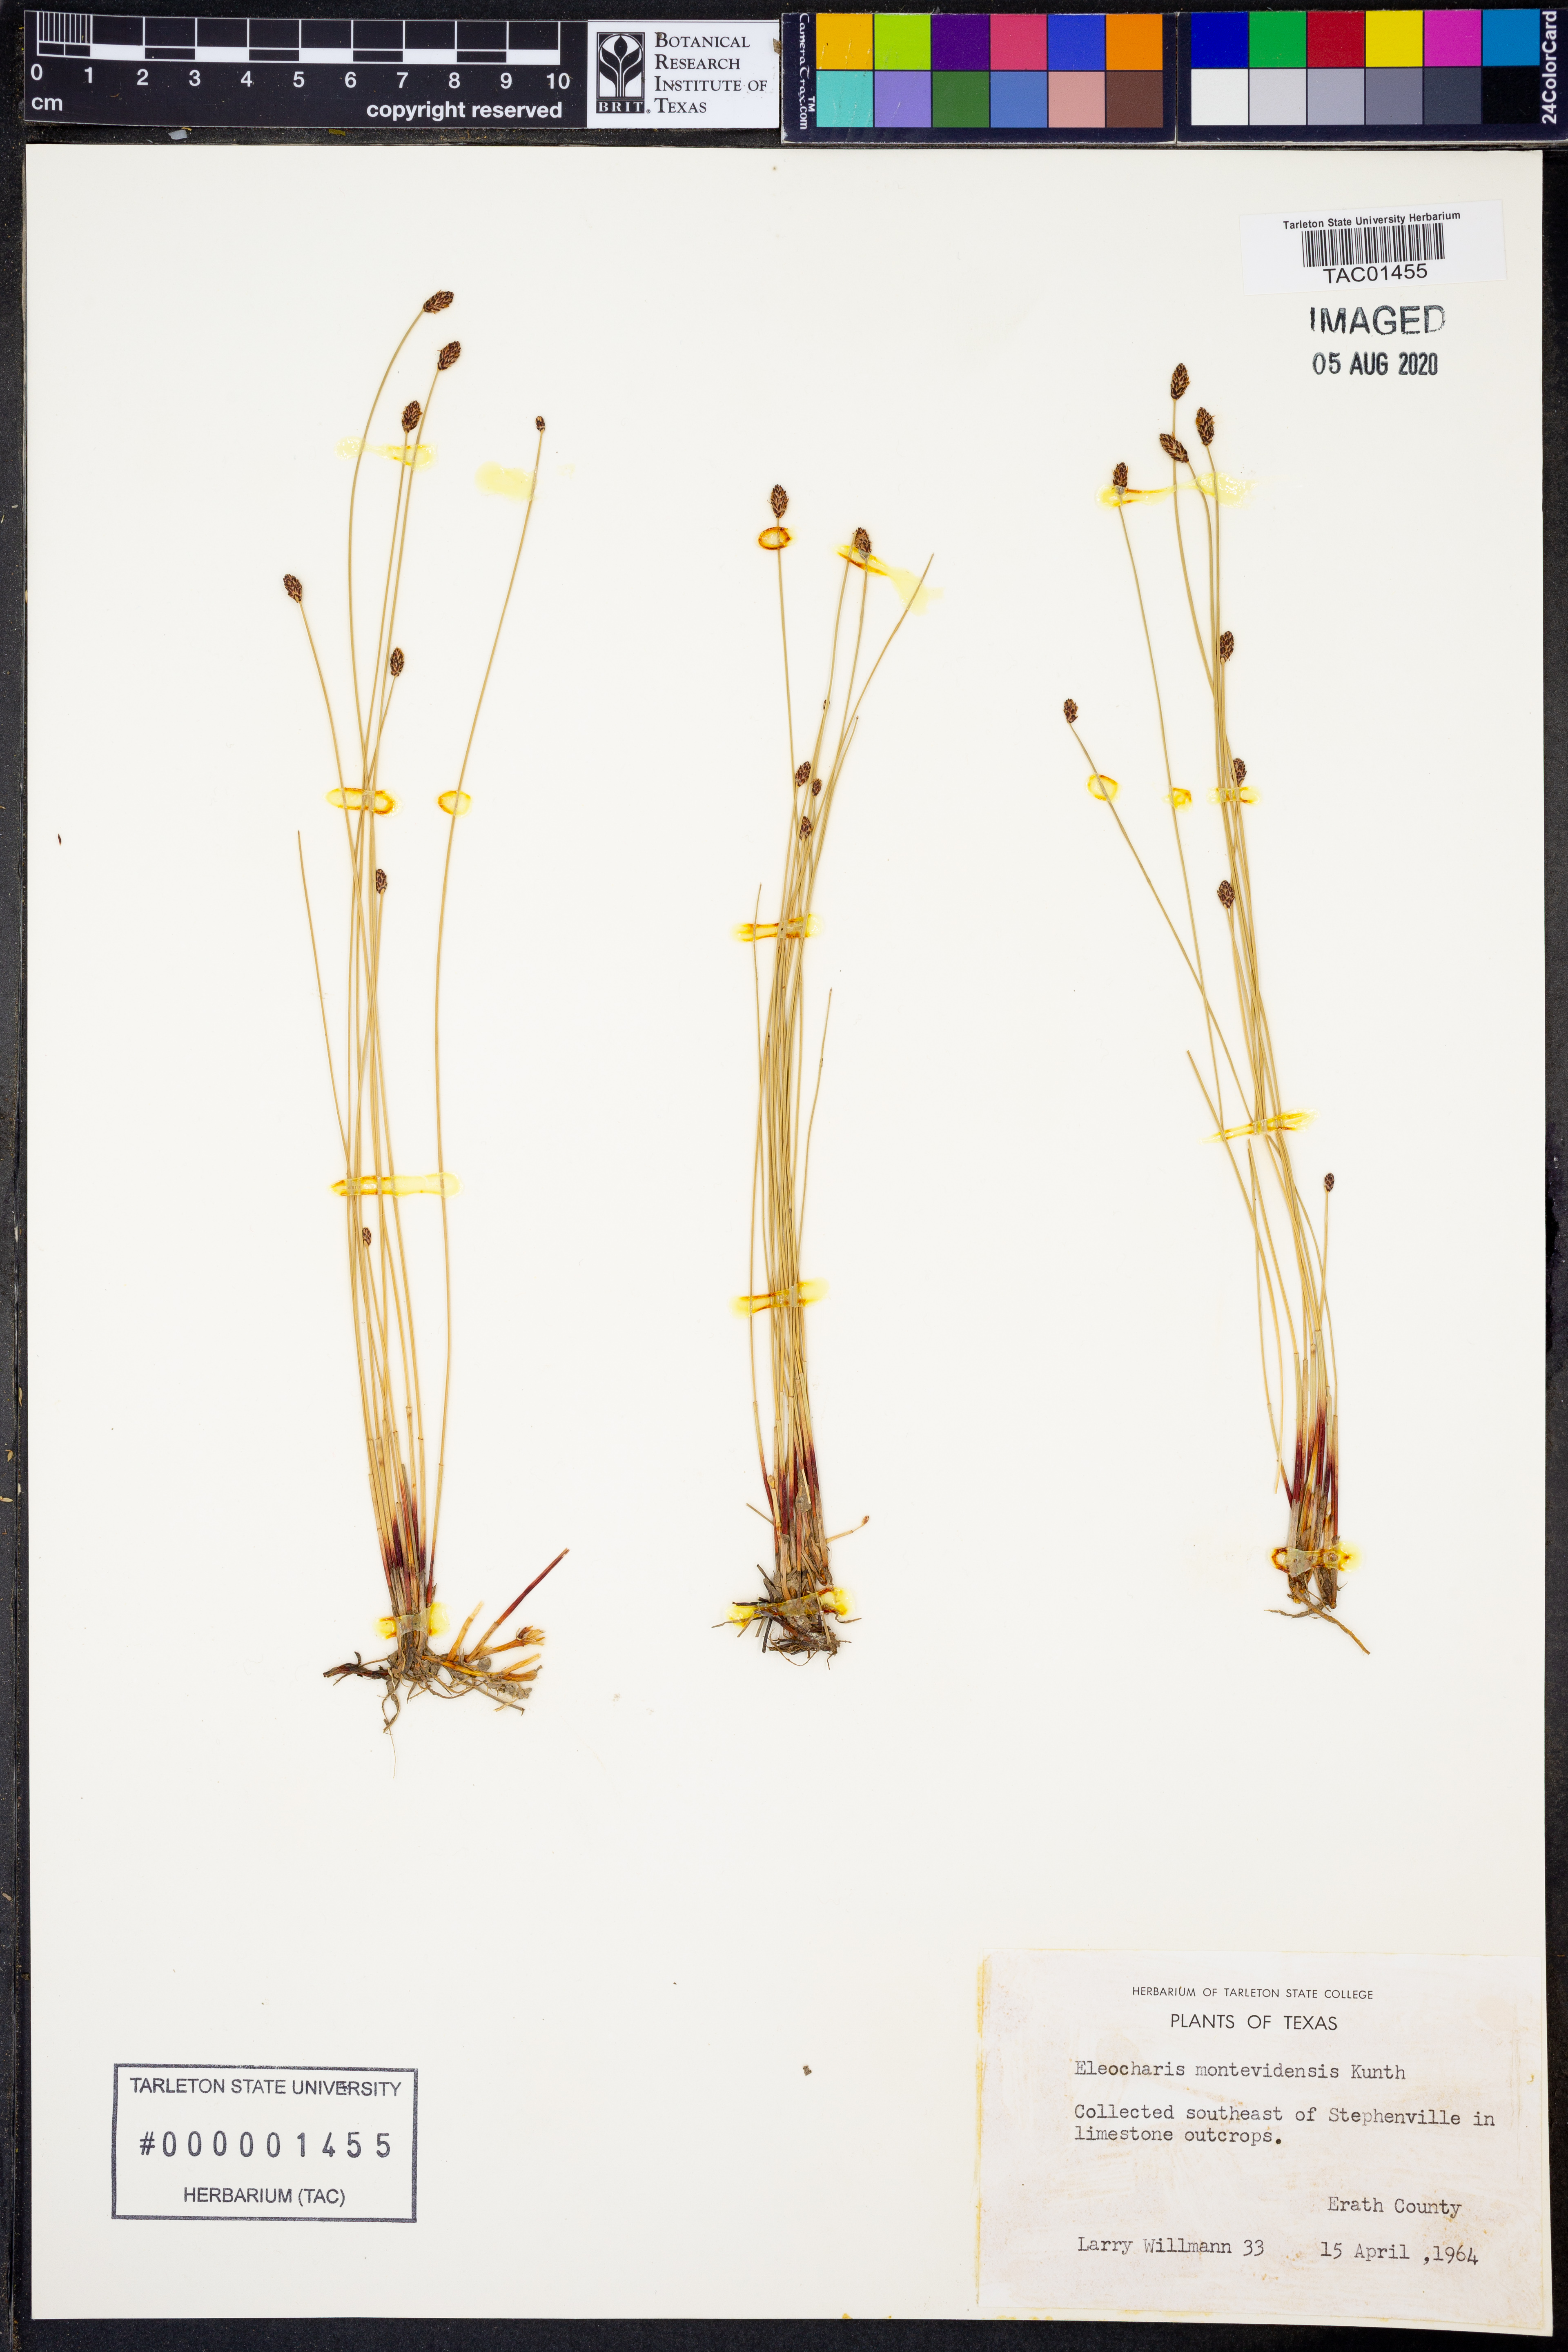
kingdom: Plantae
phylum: Tracheophyta
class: Liliopsida
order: Poales
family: Cyperaceae
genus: Eleocharis
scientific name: Eleocharis montevidensis
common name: Sand spike-rush
